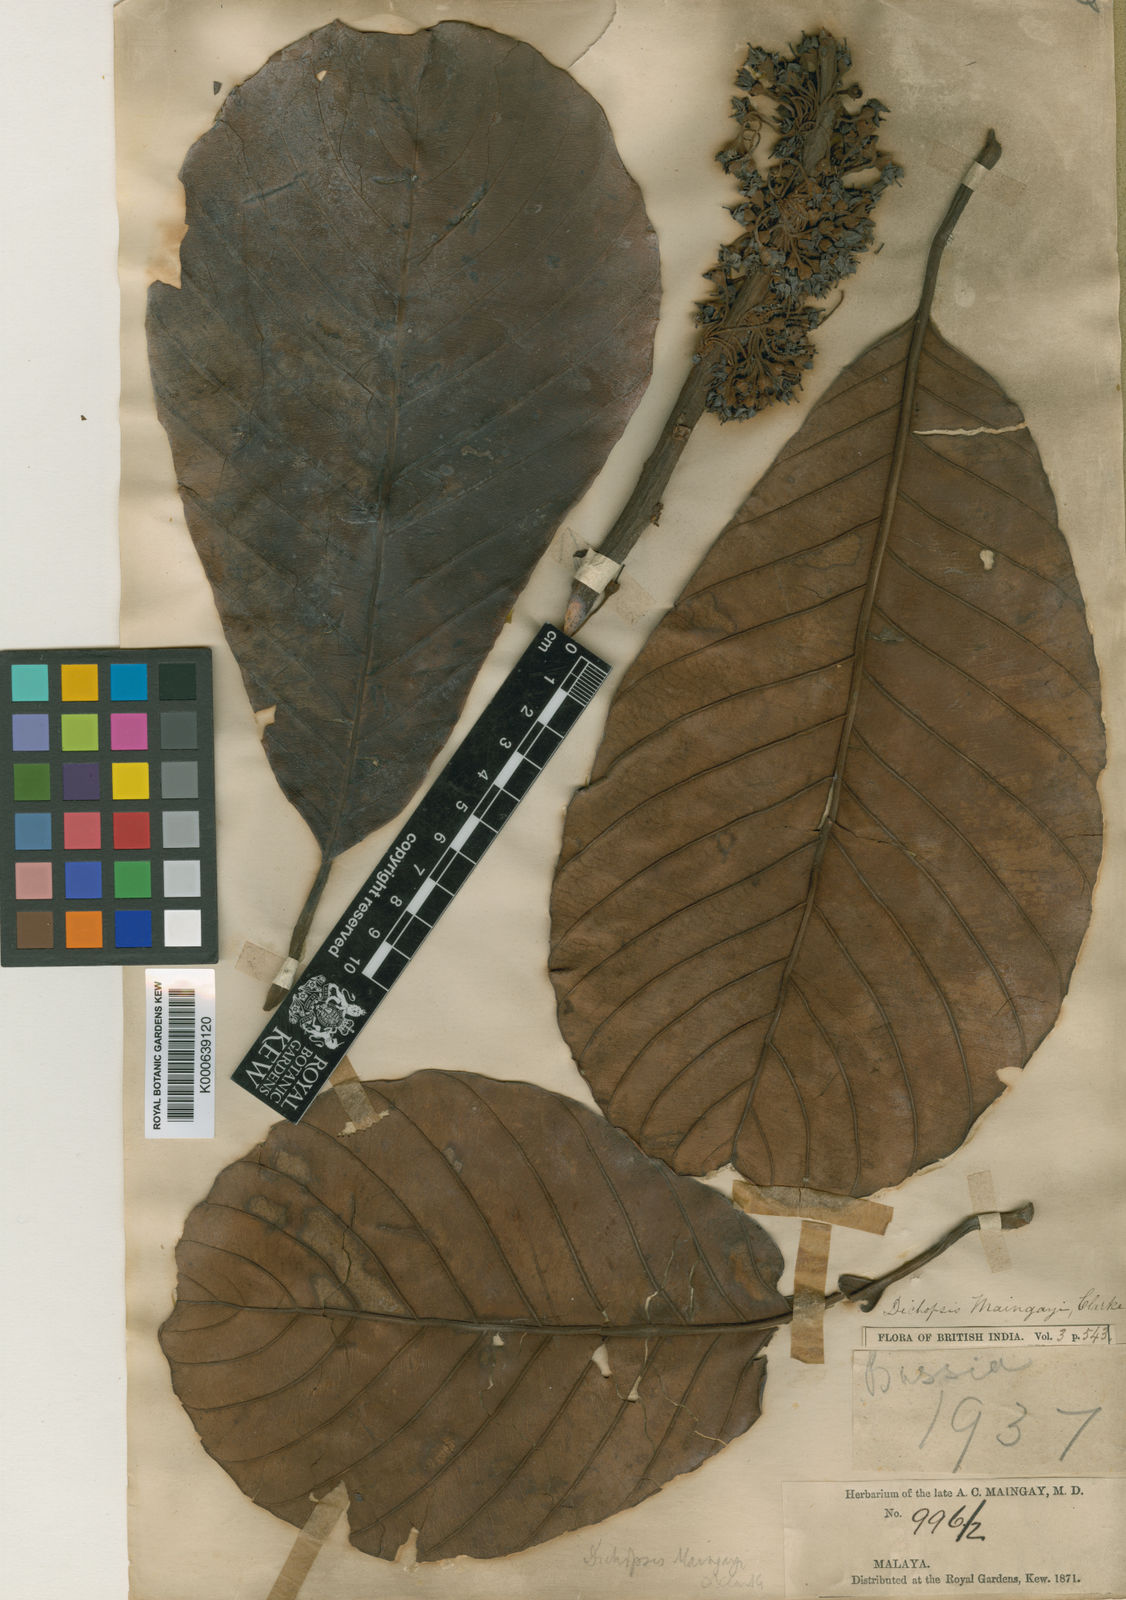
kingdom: Plantae
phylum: Tracheophyta
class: Magnoliopsida
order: Ericales
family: Sapotaceae
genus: Palaquium
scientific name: Palaquium maingayi
